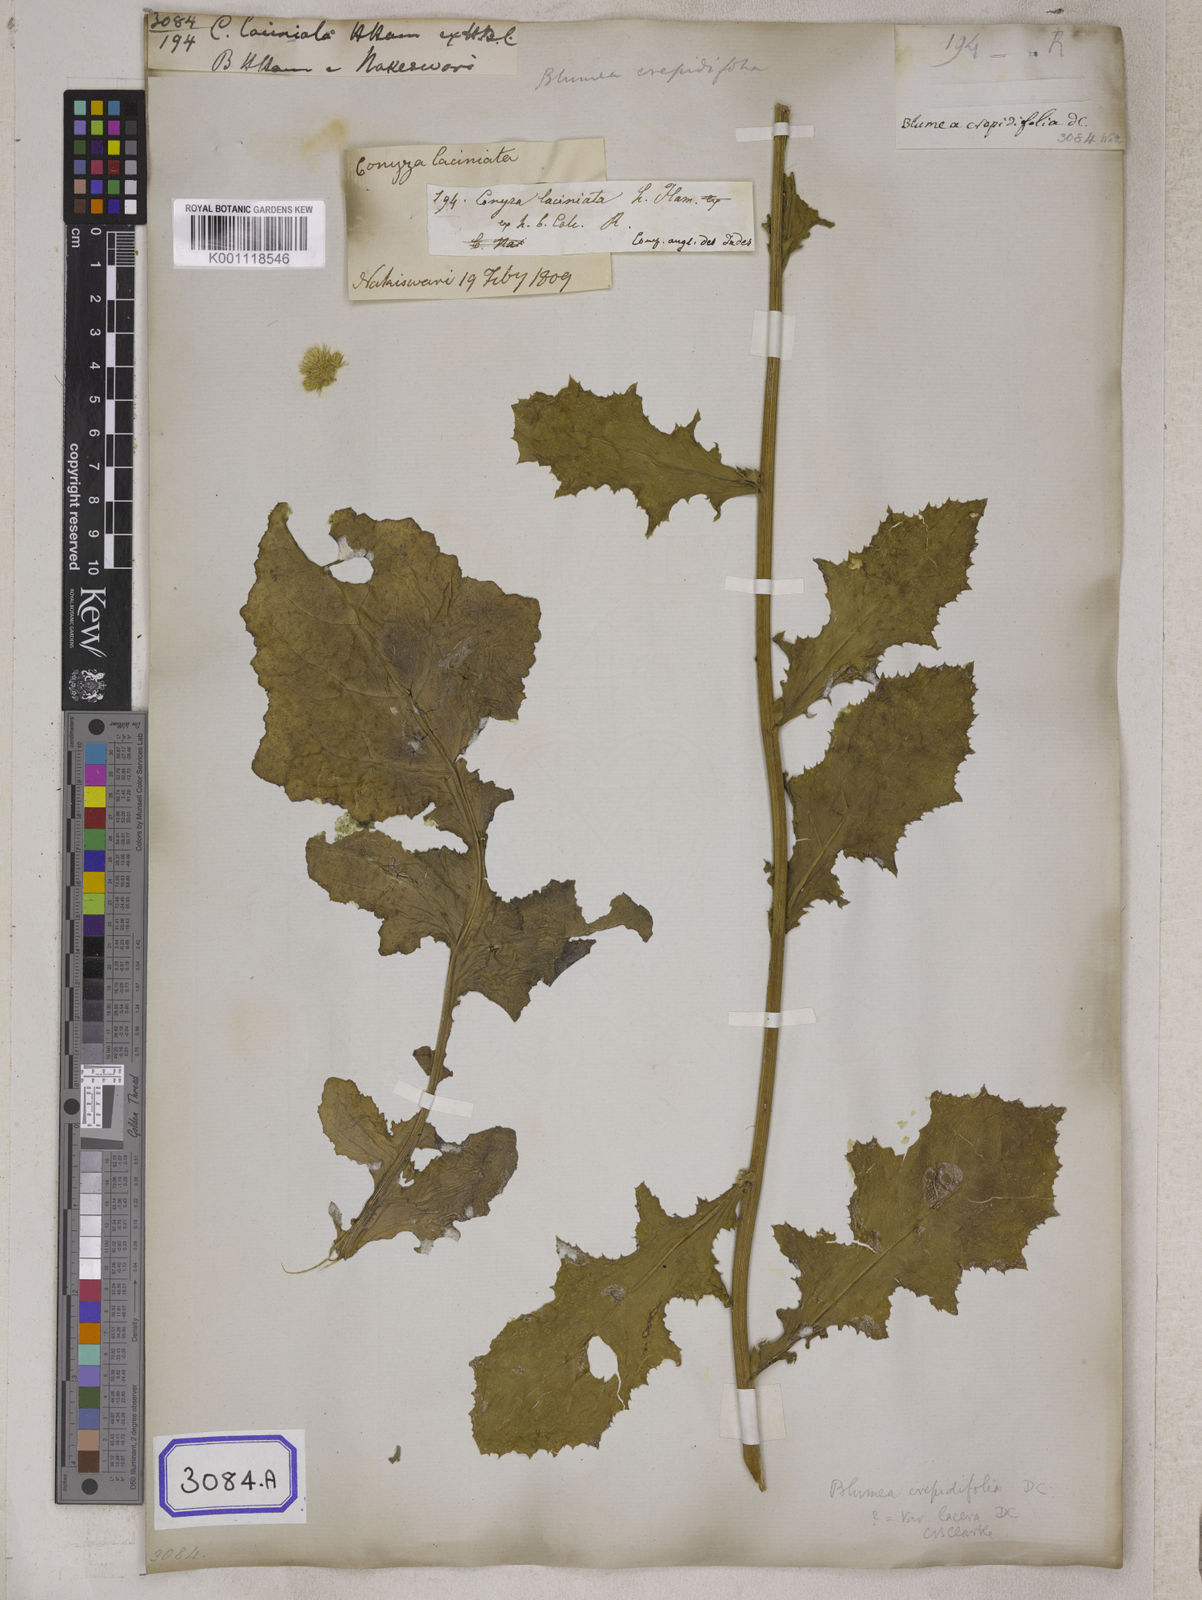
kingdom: Plantae
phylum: Tracheophyta
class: Magnoliopsida
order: Asterales
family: Asteraceae
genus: Blumea
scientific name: Blumea sinuata
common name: Cutleaf false oxtongue
